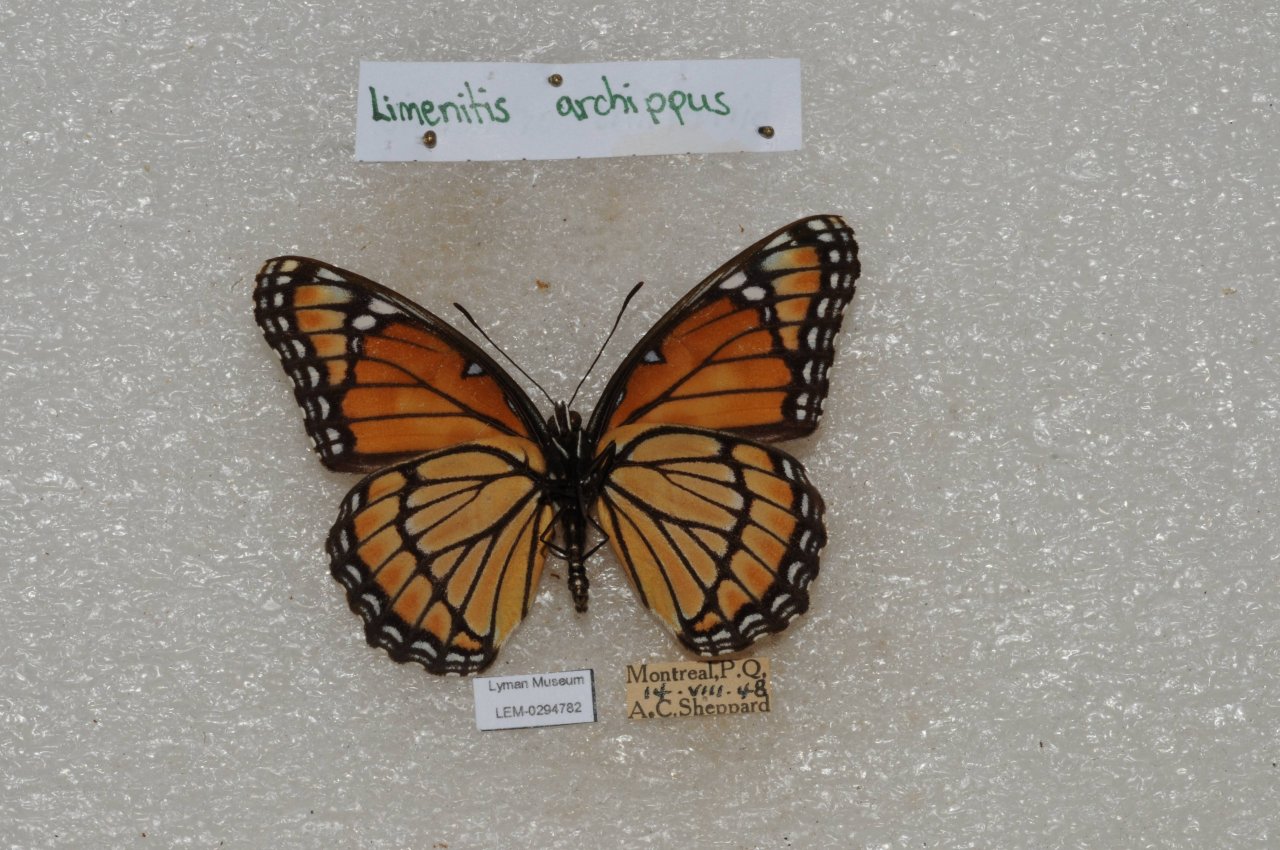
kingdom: Animalia
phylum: Arthropoda
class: Insecta
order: Lepidoptera
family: Nymphalidae
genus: Limenitis
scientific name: Limenitis archippus
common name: Viceroy
